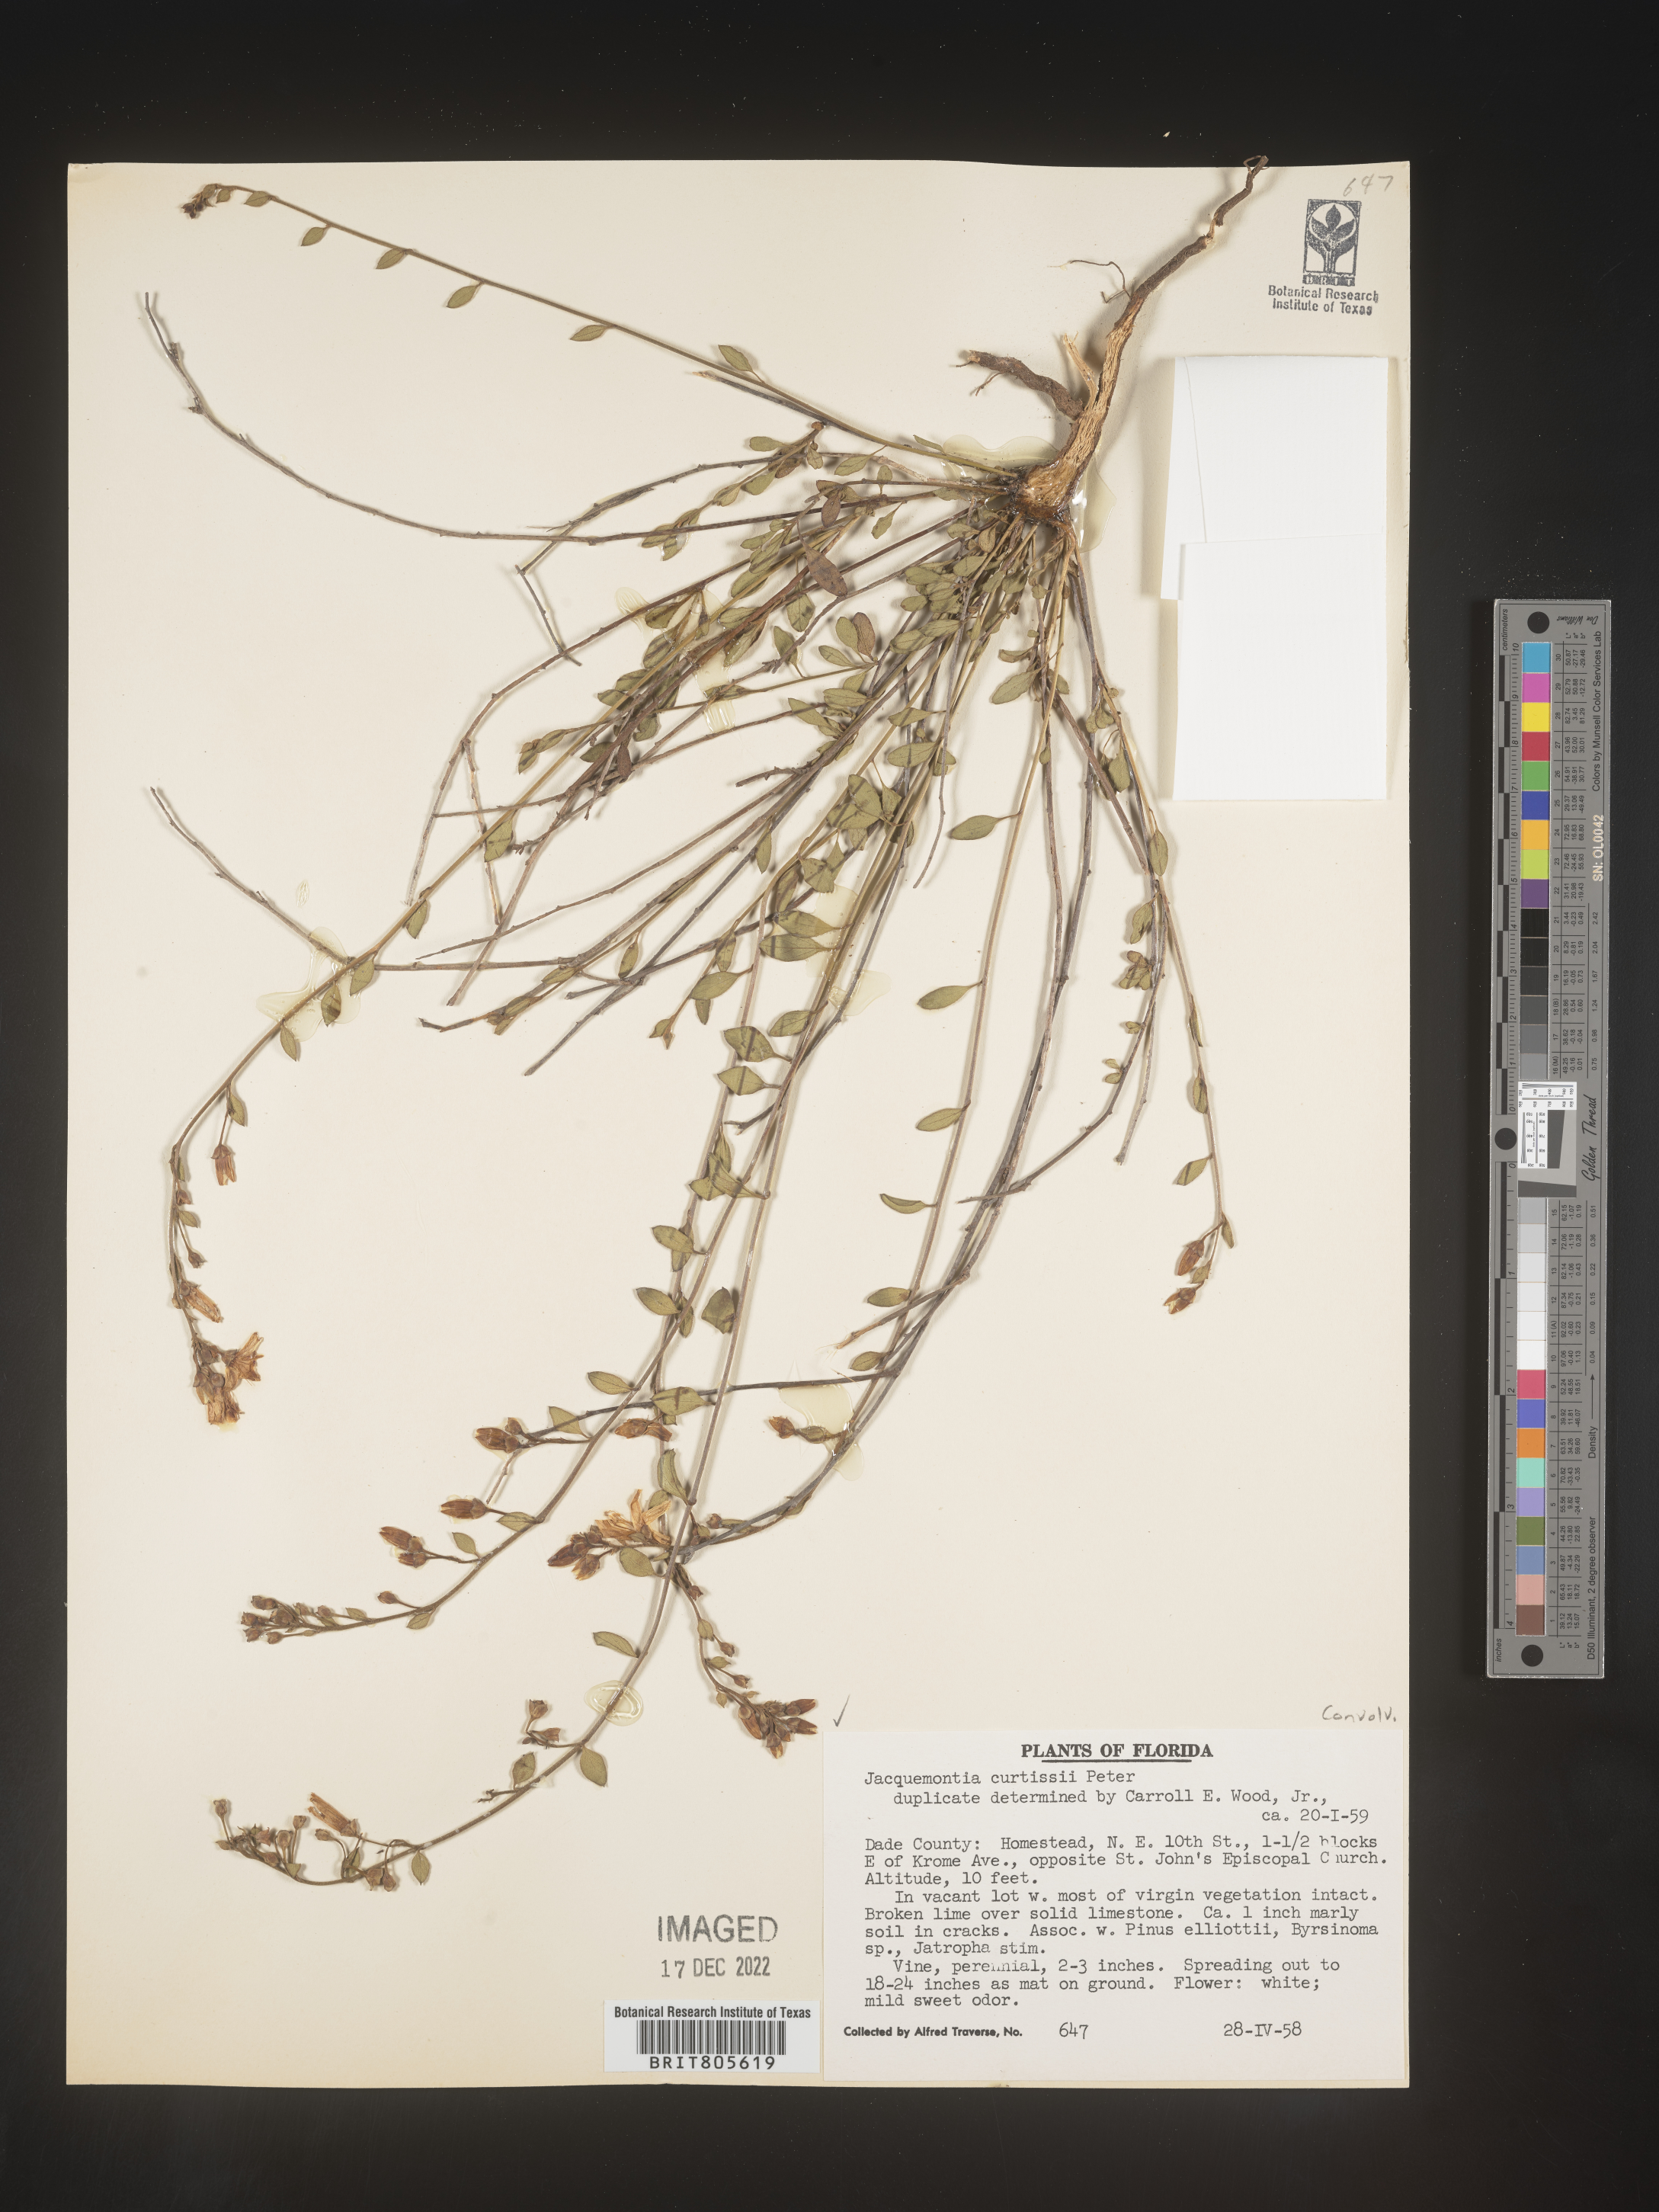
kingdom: Plantae
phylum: Tracheophyta
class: Magnoliopsida
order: Solanales
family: Convolvulaceae
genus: Jacquemontia
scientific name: Jacquemontia
